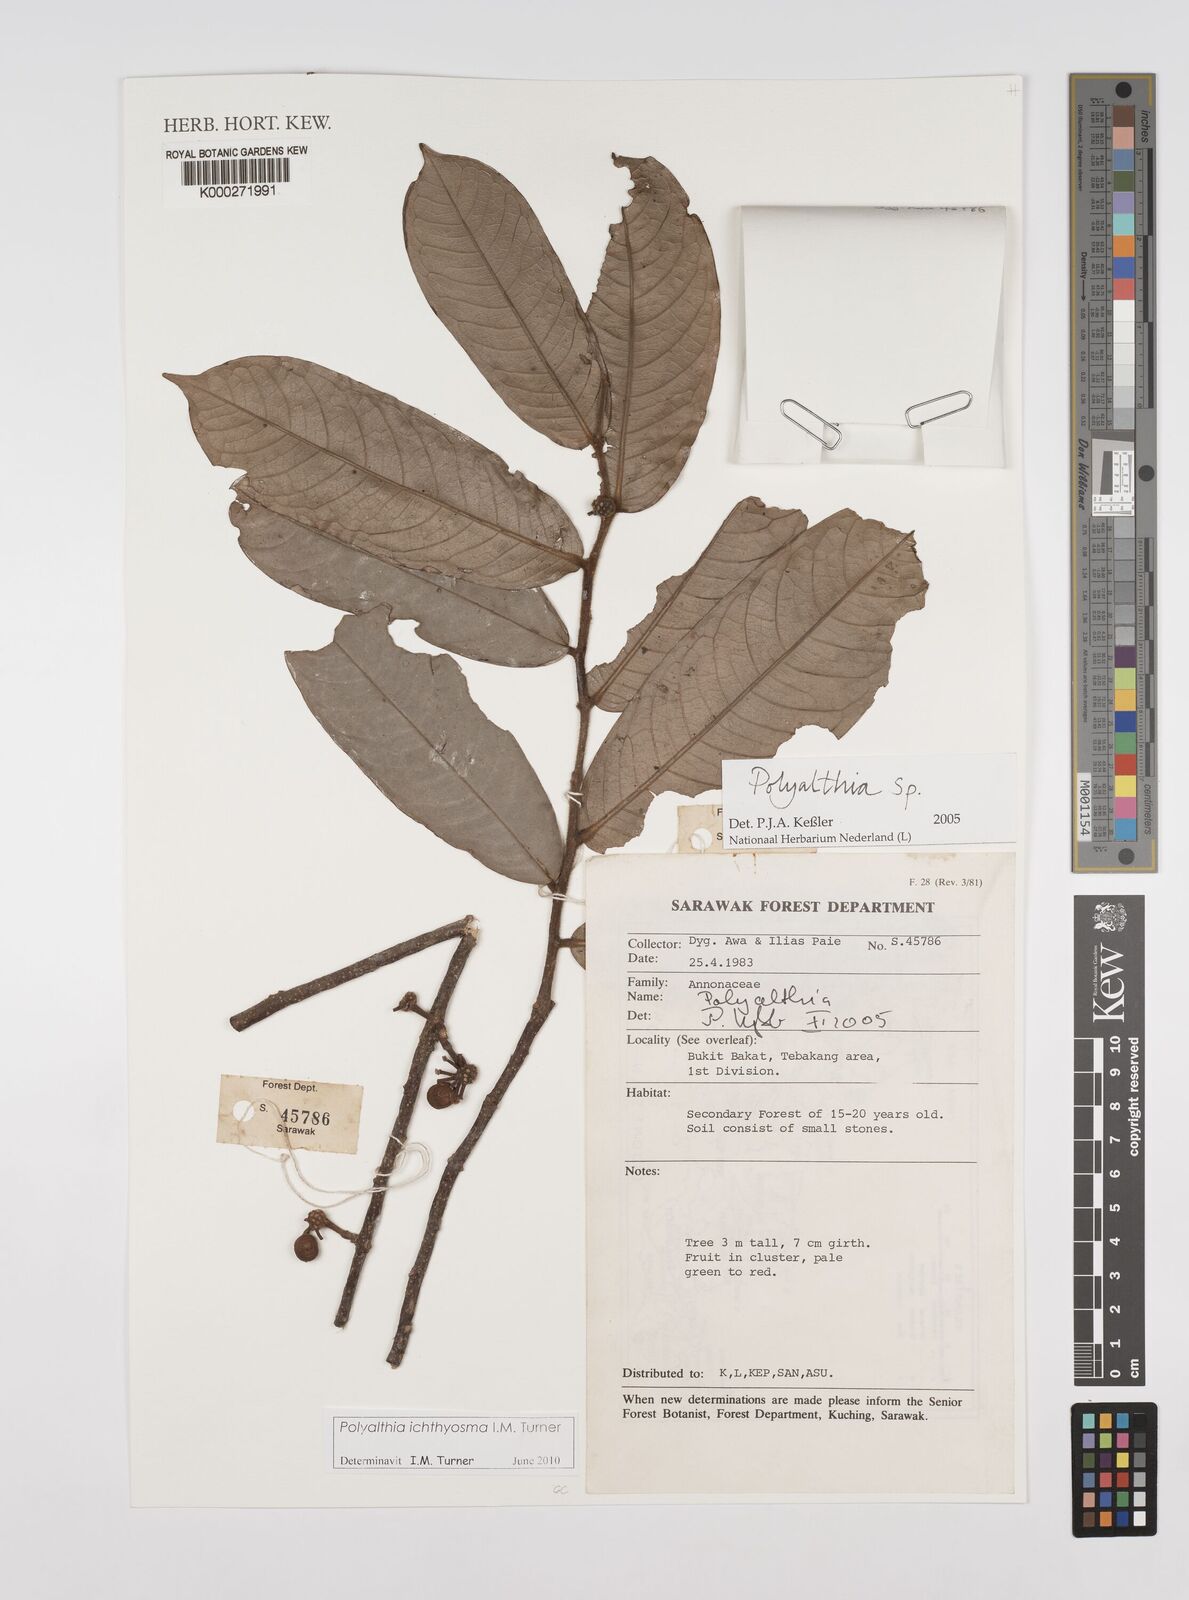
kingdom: Plantae
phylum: Tracheophyta
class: Magnoliopsida
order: Magnoliales
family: Annonaceae
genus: Polyalthia
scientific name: Polyalthia
